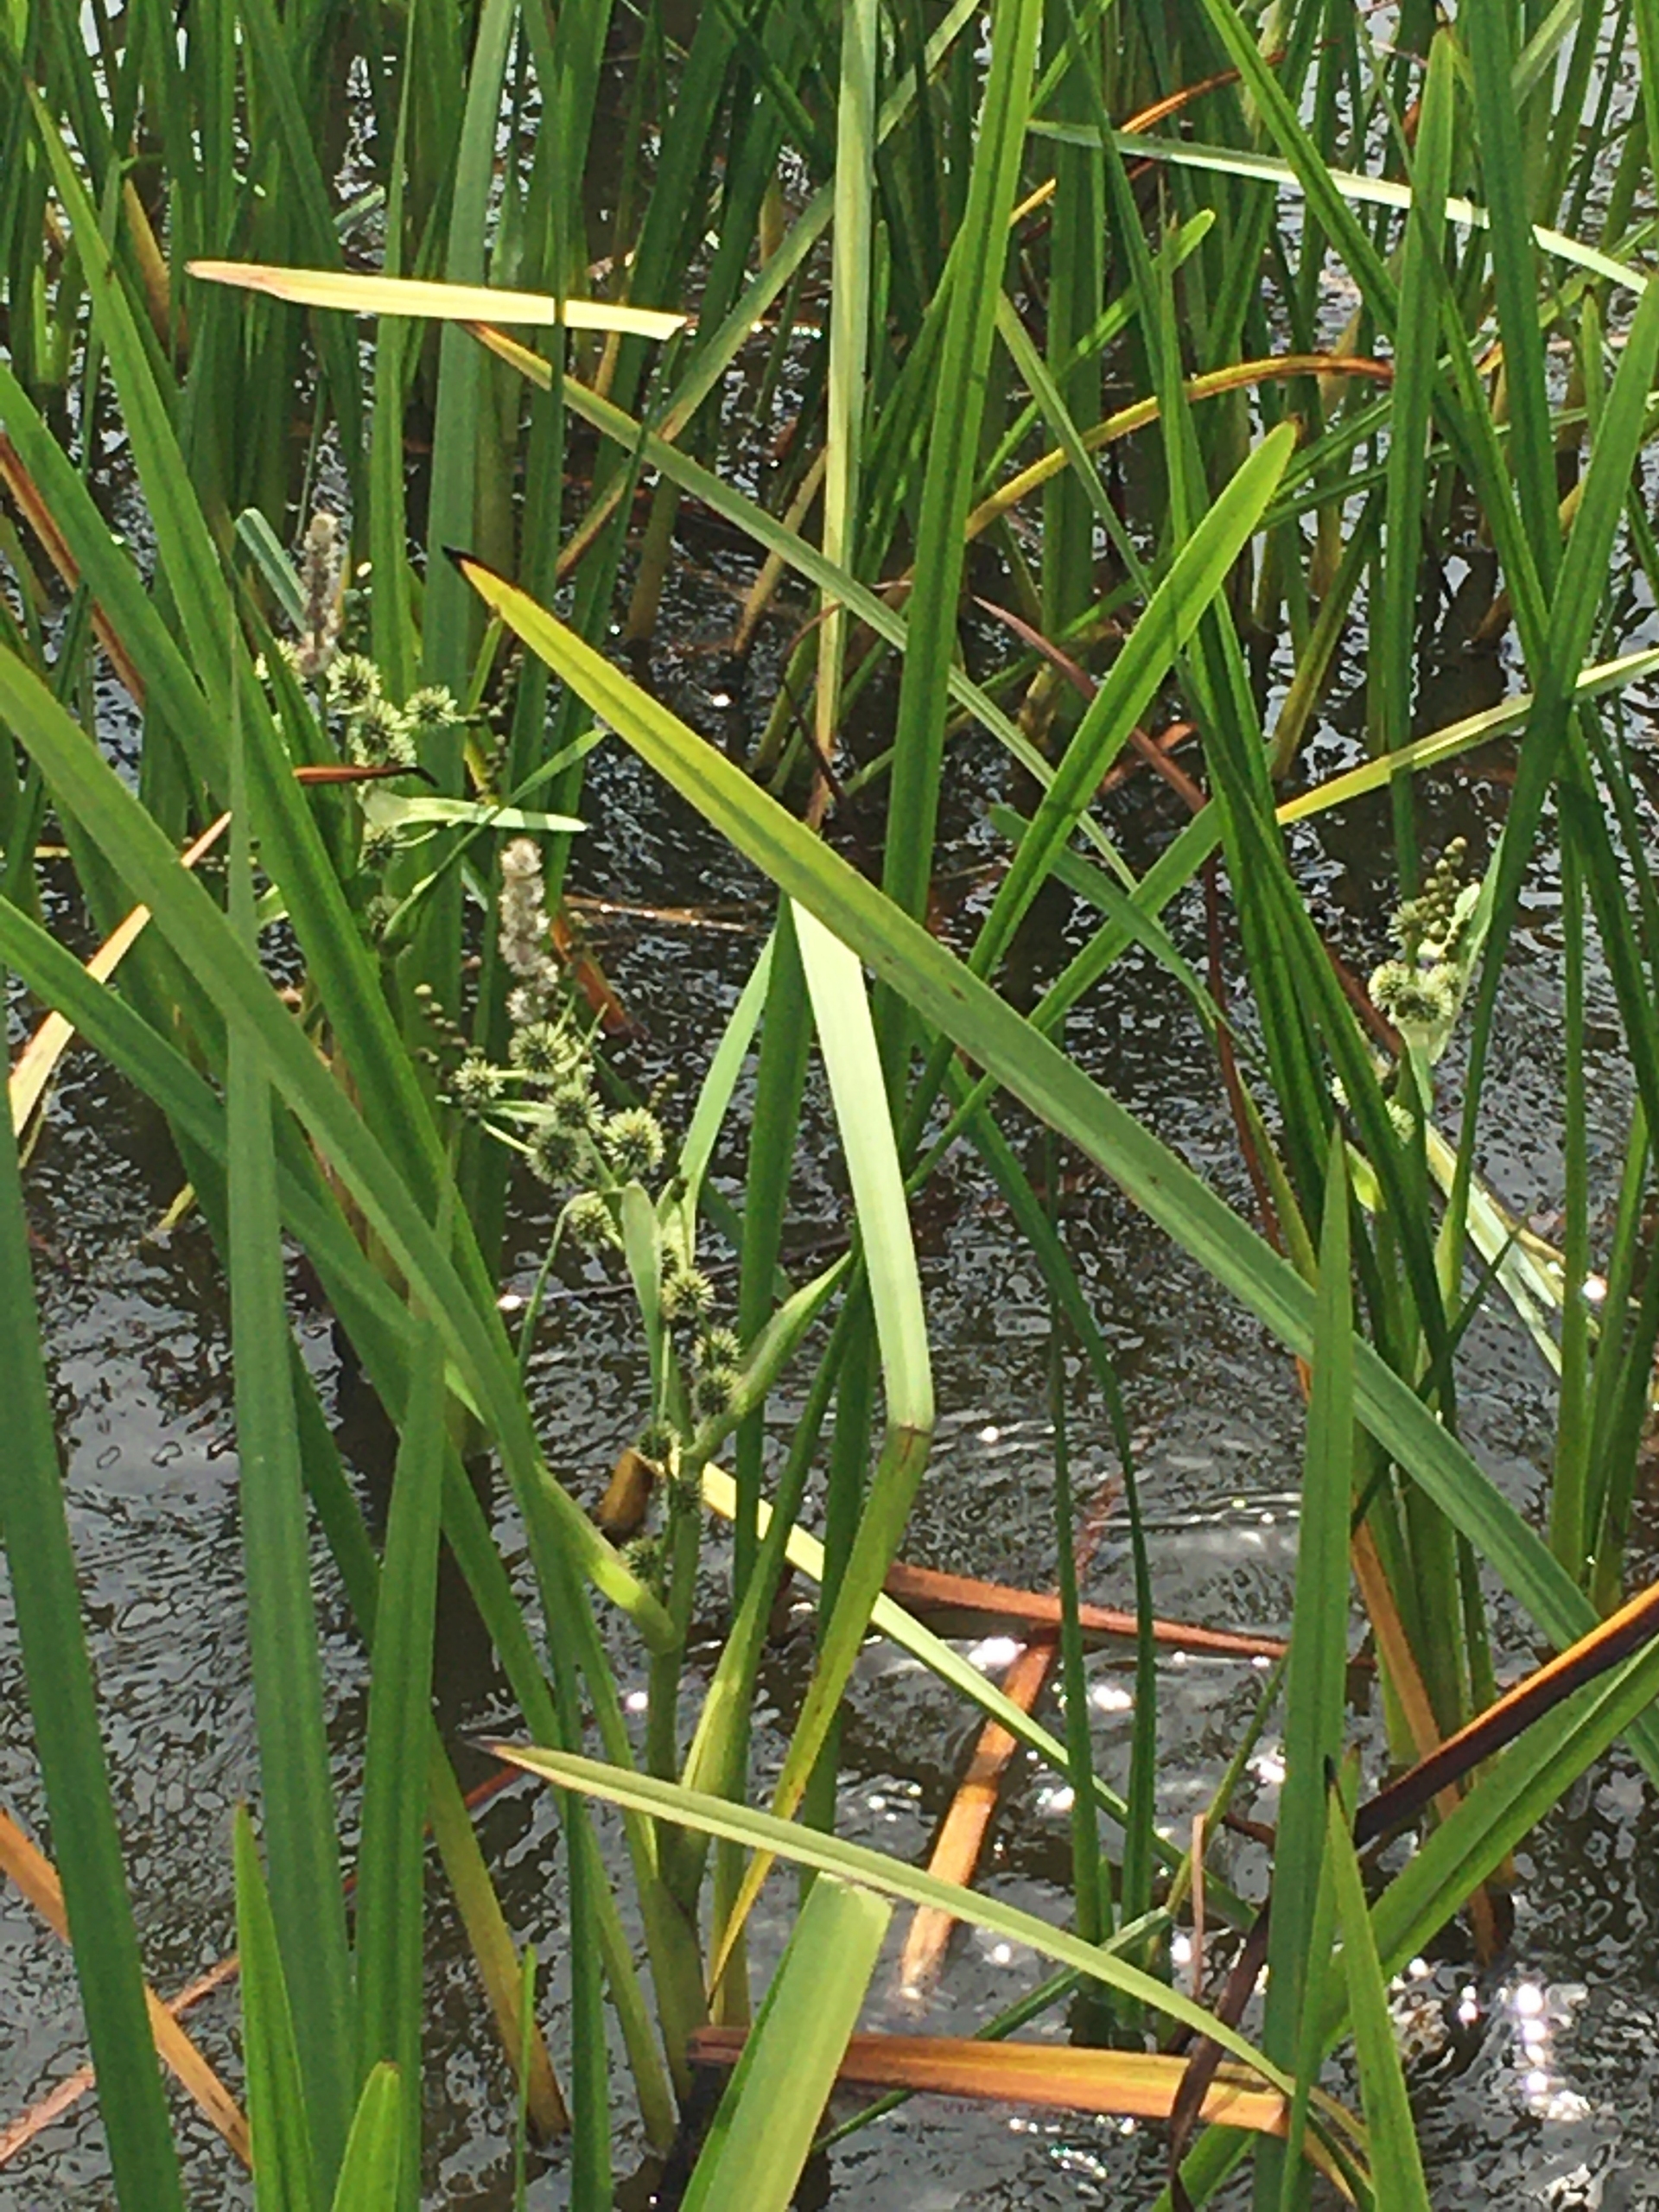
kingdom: Plantae
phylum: Tracheophyta
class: Liliopsida
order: Poales
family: Typhaceae
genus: Sparganium
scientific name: Sparganium erectum
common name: Grenet pindsvineknop
